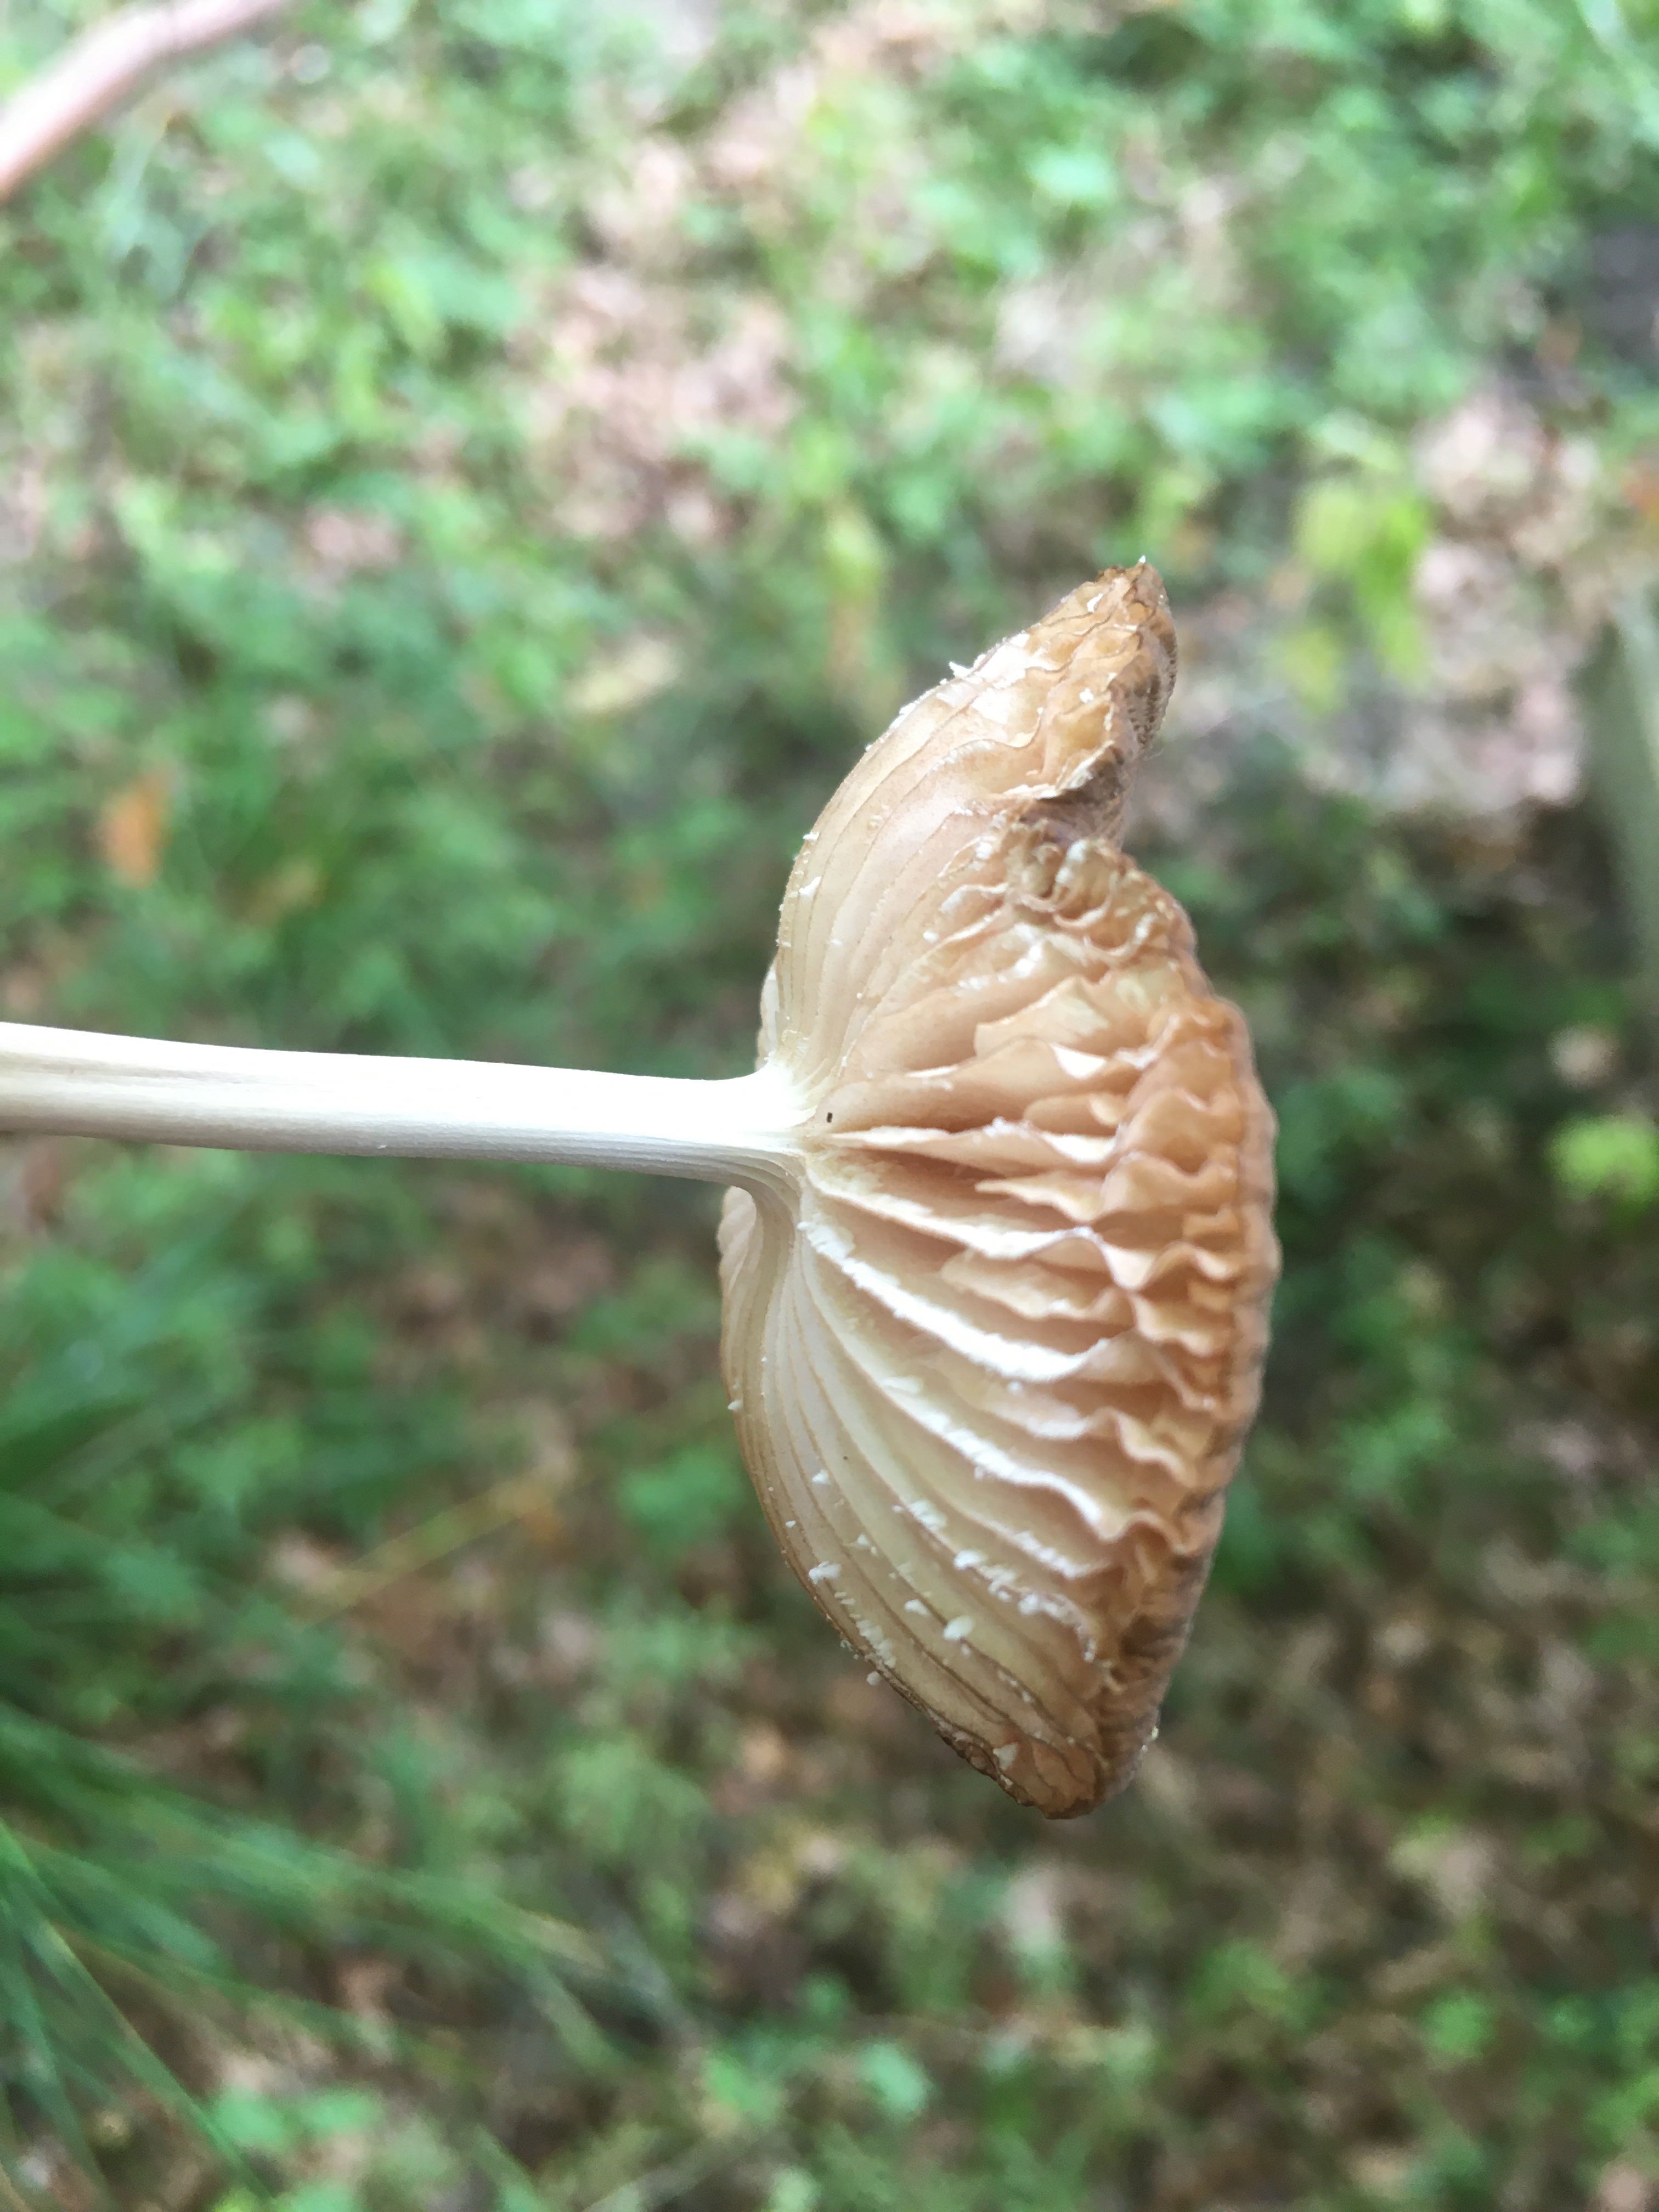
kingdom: Fungi
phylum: Basidiomycota
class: Agaricomycetes
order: Agaricales
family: Physalacriaceae
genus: Hymenopellis
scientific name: Hymenopellis radicata
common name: almindelig pælerodshat
